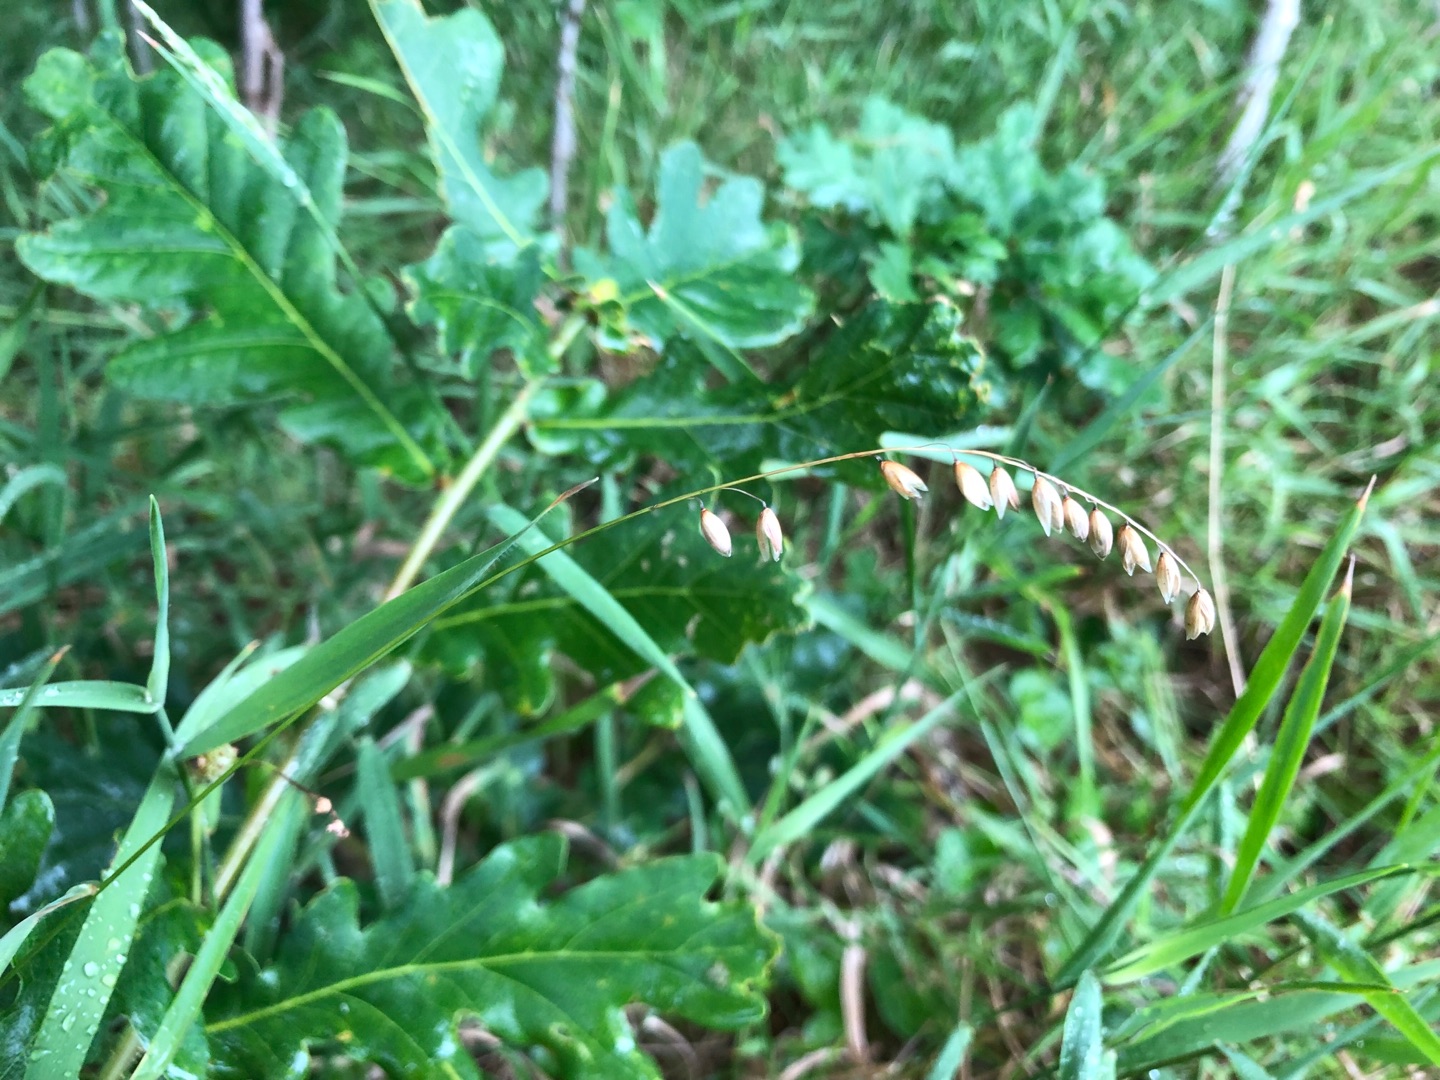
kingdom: Plantae
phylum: Tracheophyta
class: Liliopsida
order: Poales
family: Poaceae
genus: Melica
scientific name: Melica nutans
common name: Nikkende flitteraks
